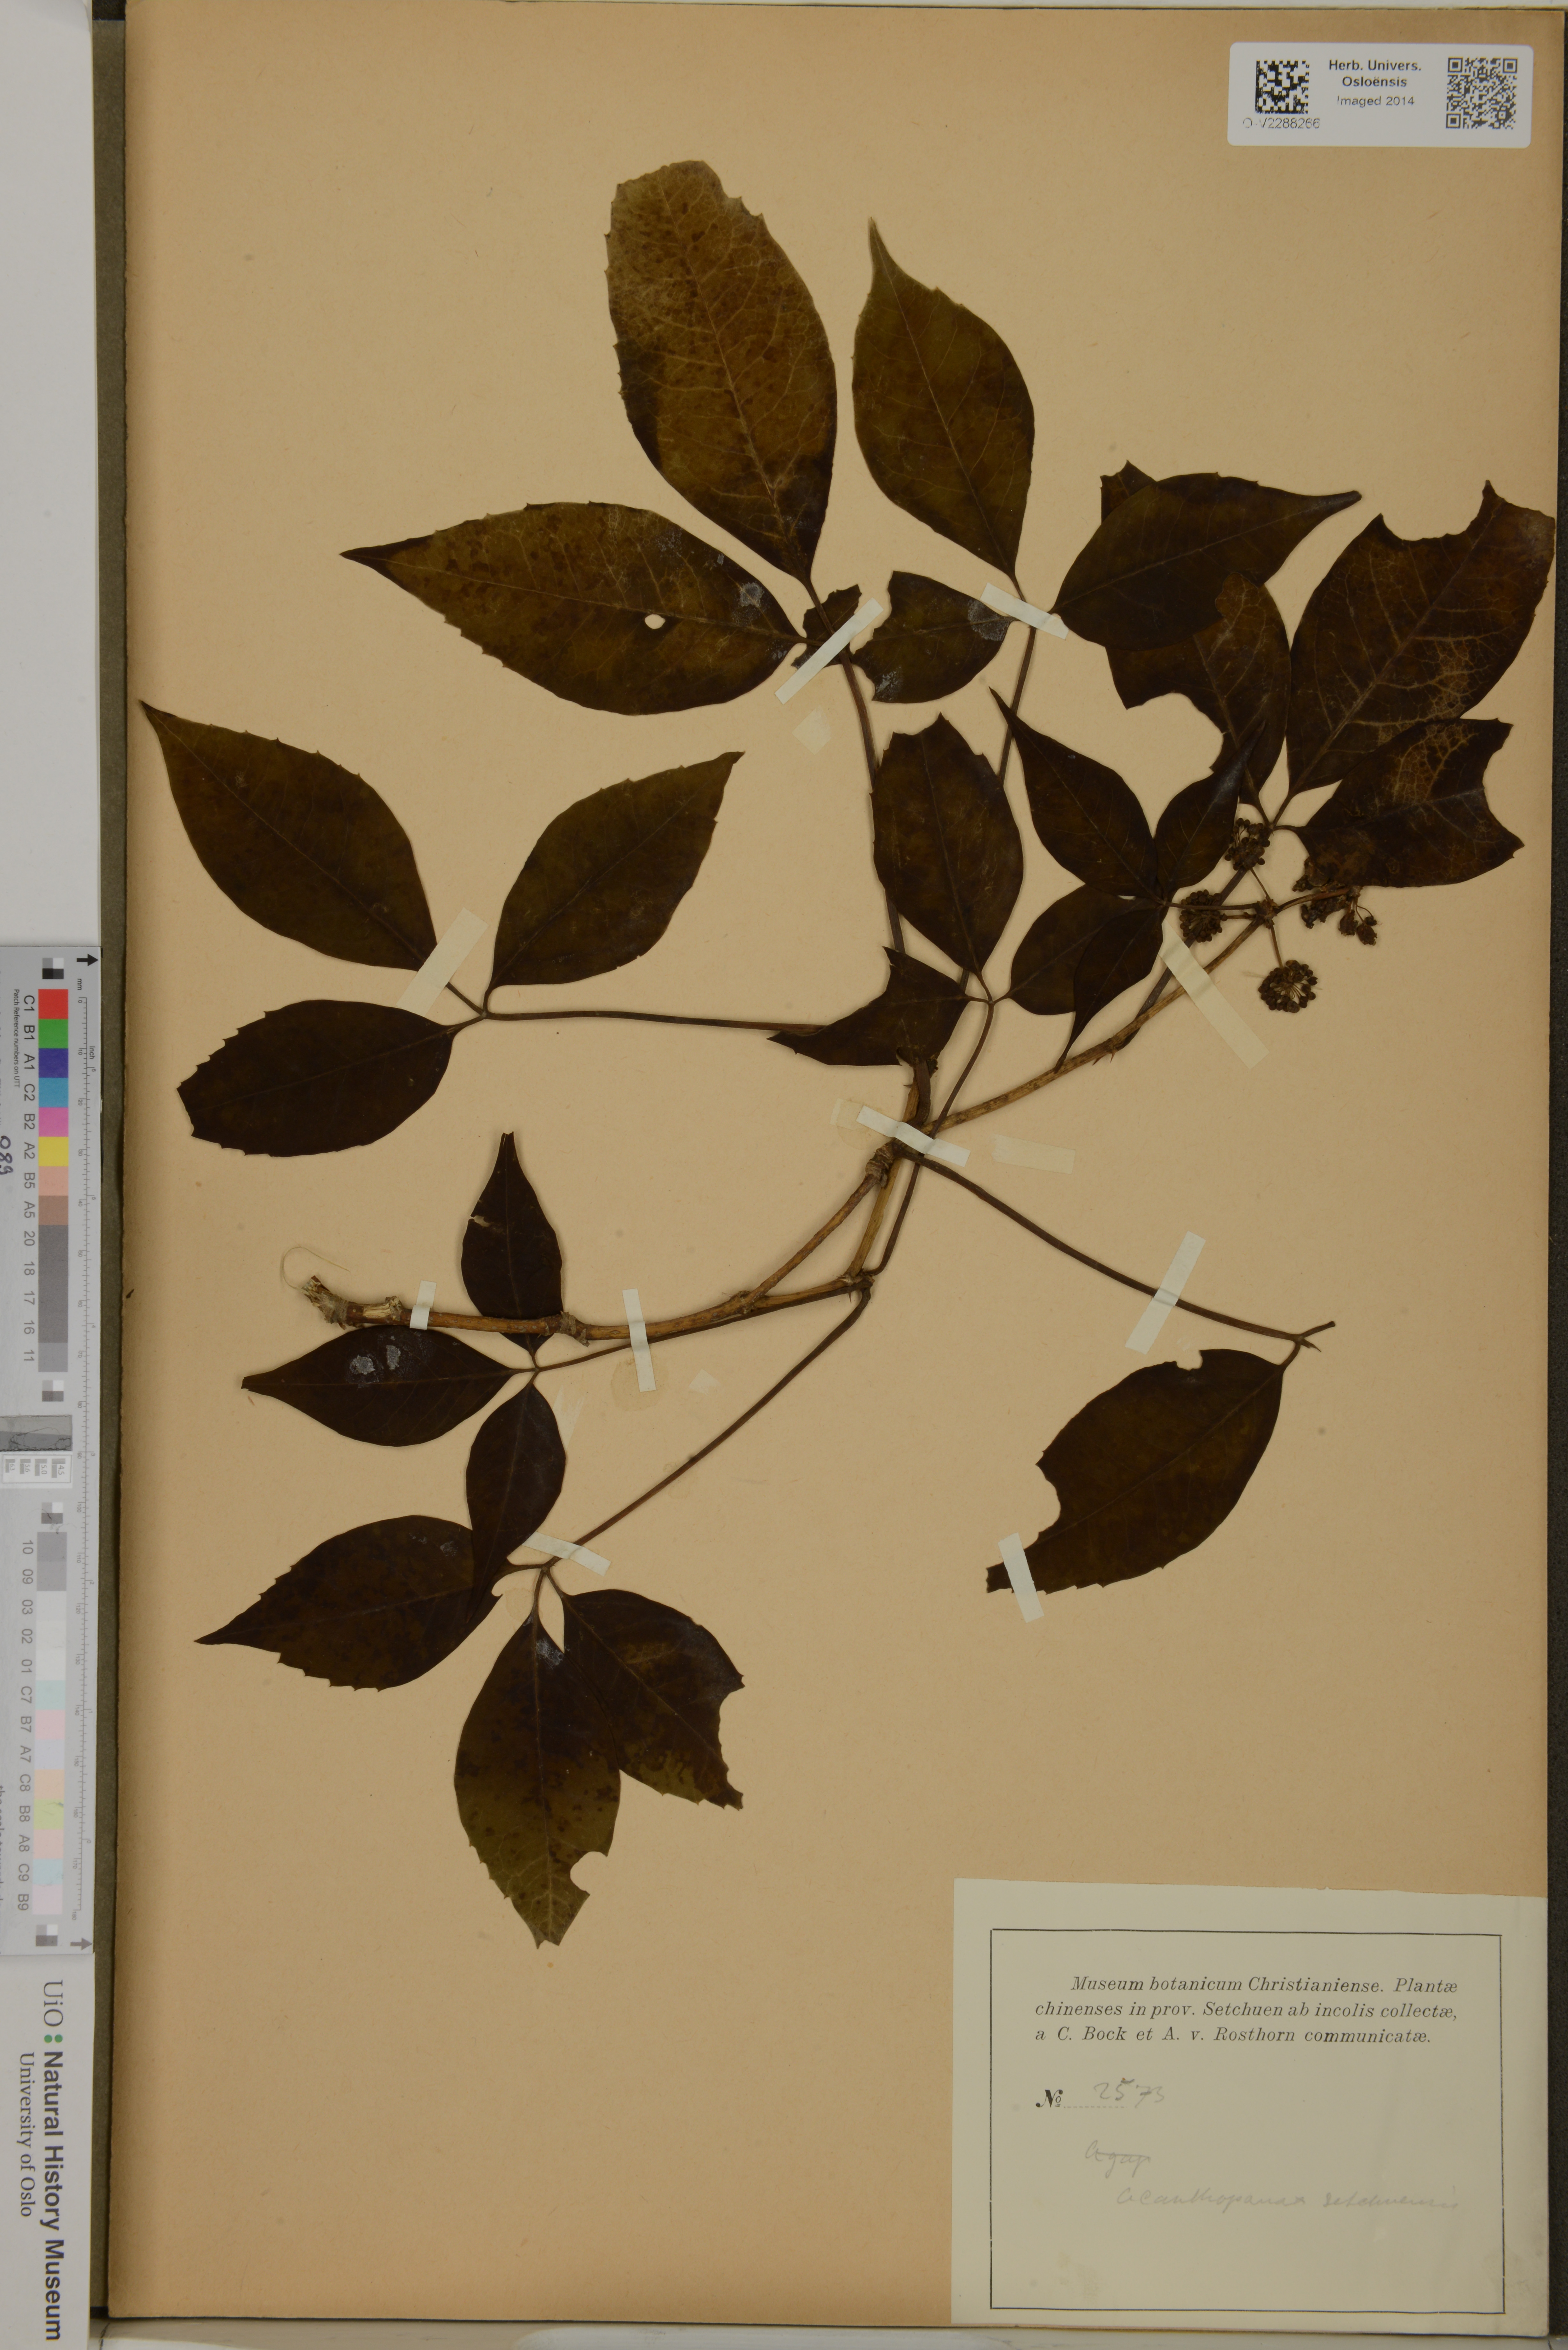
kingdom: Plantae
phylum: Tracheophyta
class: Magnoliopsida
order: Apiales
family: Araliaceae
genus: Eleutherococcus
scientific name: Eleutherococcus leucorrhizus
